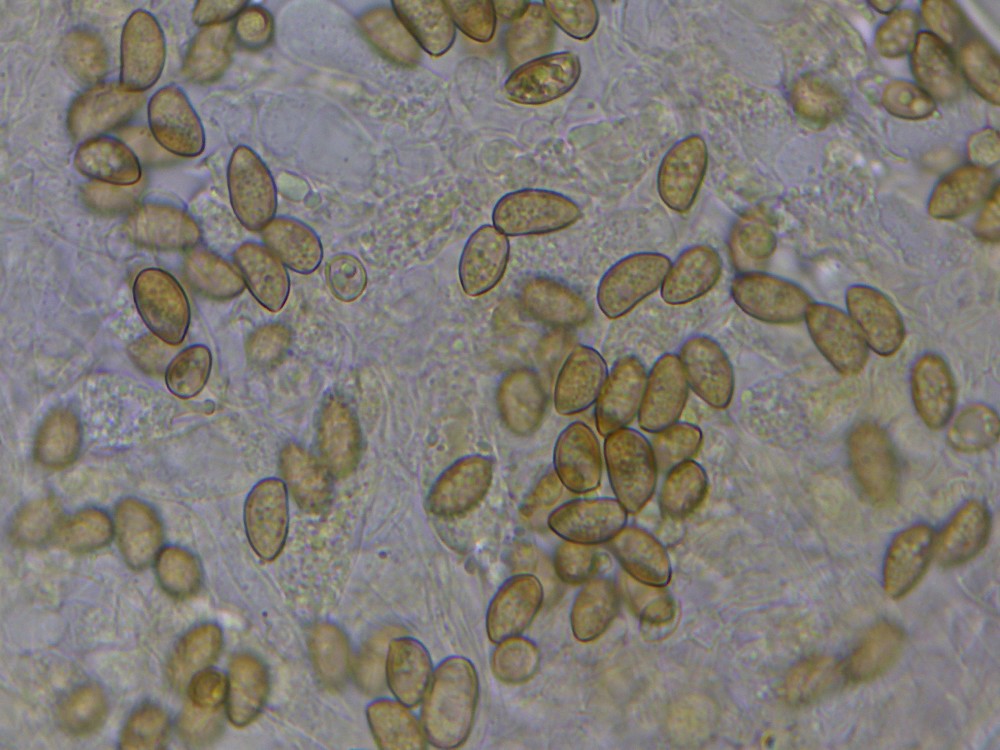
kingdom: Fungi
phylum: Basidiomycota
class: Agaricomycetes
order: Agaricales
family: Inocybaceae
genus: Inocybe
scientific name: Inocybe
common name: trævlhat
